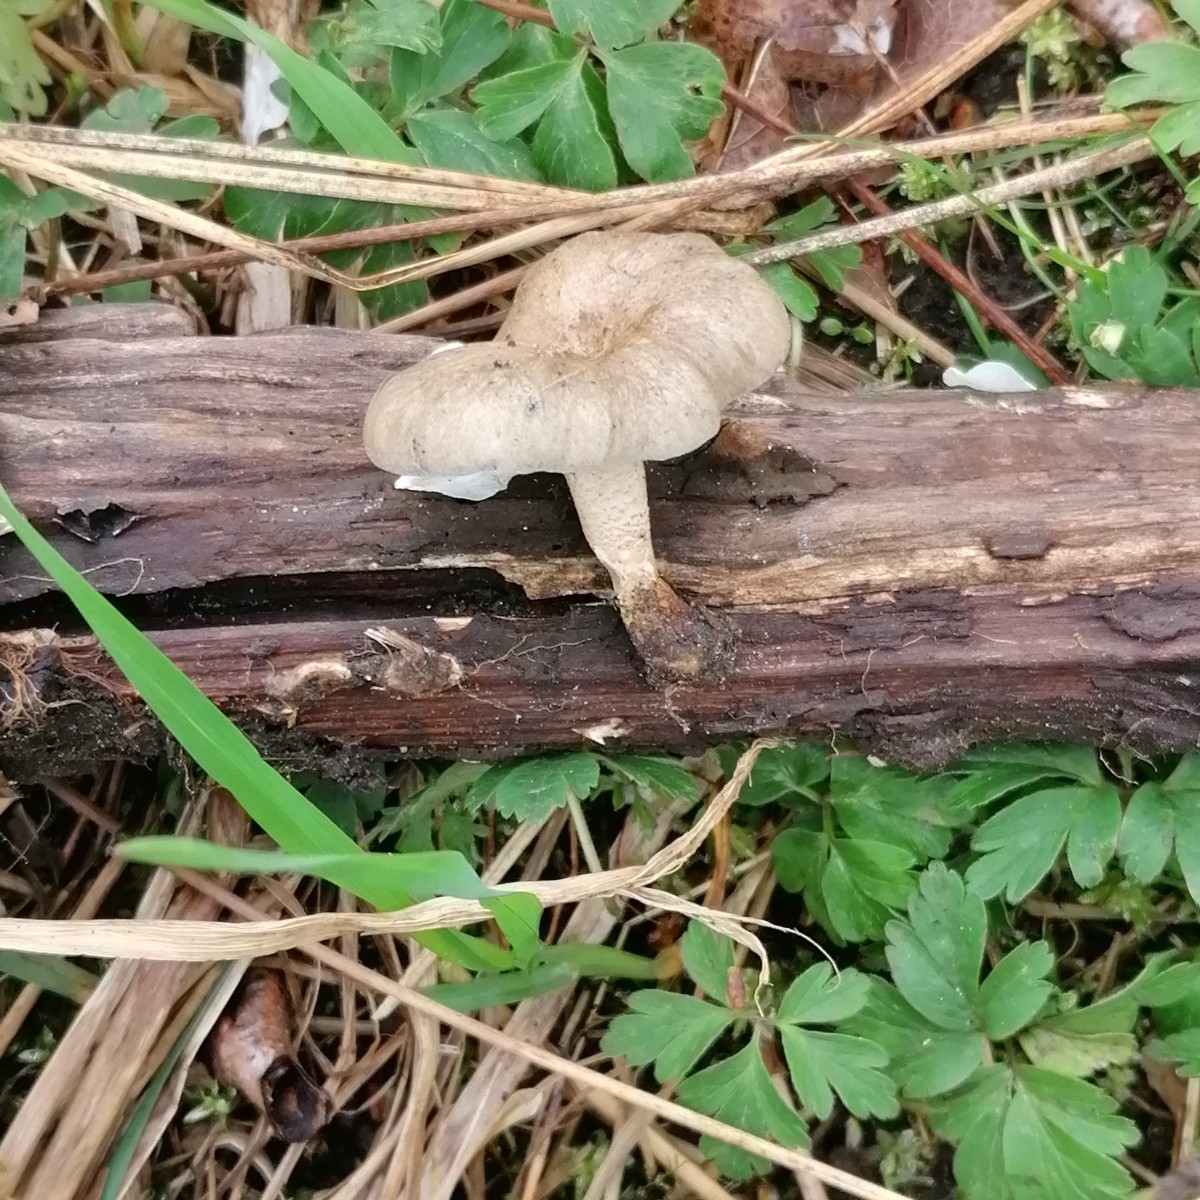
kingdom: Fungi
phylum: Basidiomycota
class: Agaricomycetes
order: Polyporales
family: Polyporaceae
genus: Lentinus
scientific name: Lentinus substrictus
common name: forårs-stilkporesvamp
